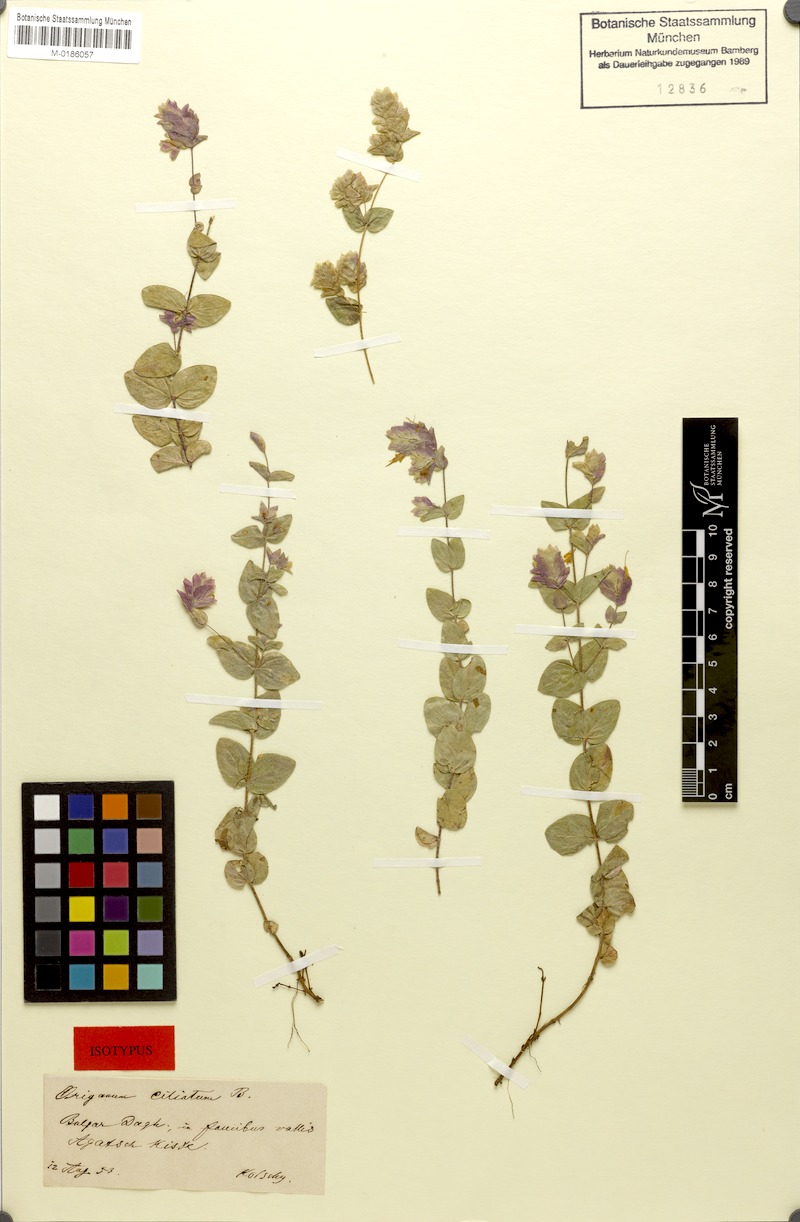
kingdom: Plantae
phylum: Tracheophyta
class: Magnoliopsida
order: Lamiales
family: Lamiaceae
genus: Origanum
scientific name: Origanum boissieri
